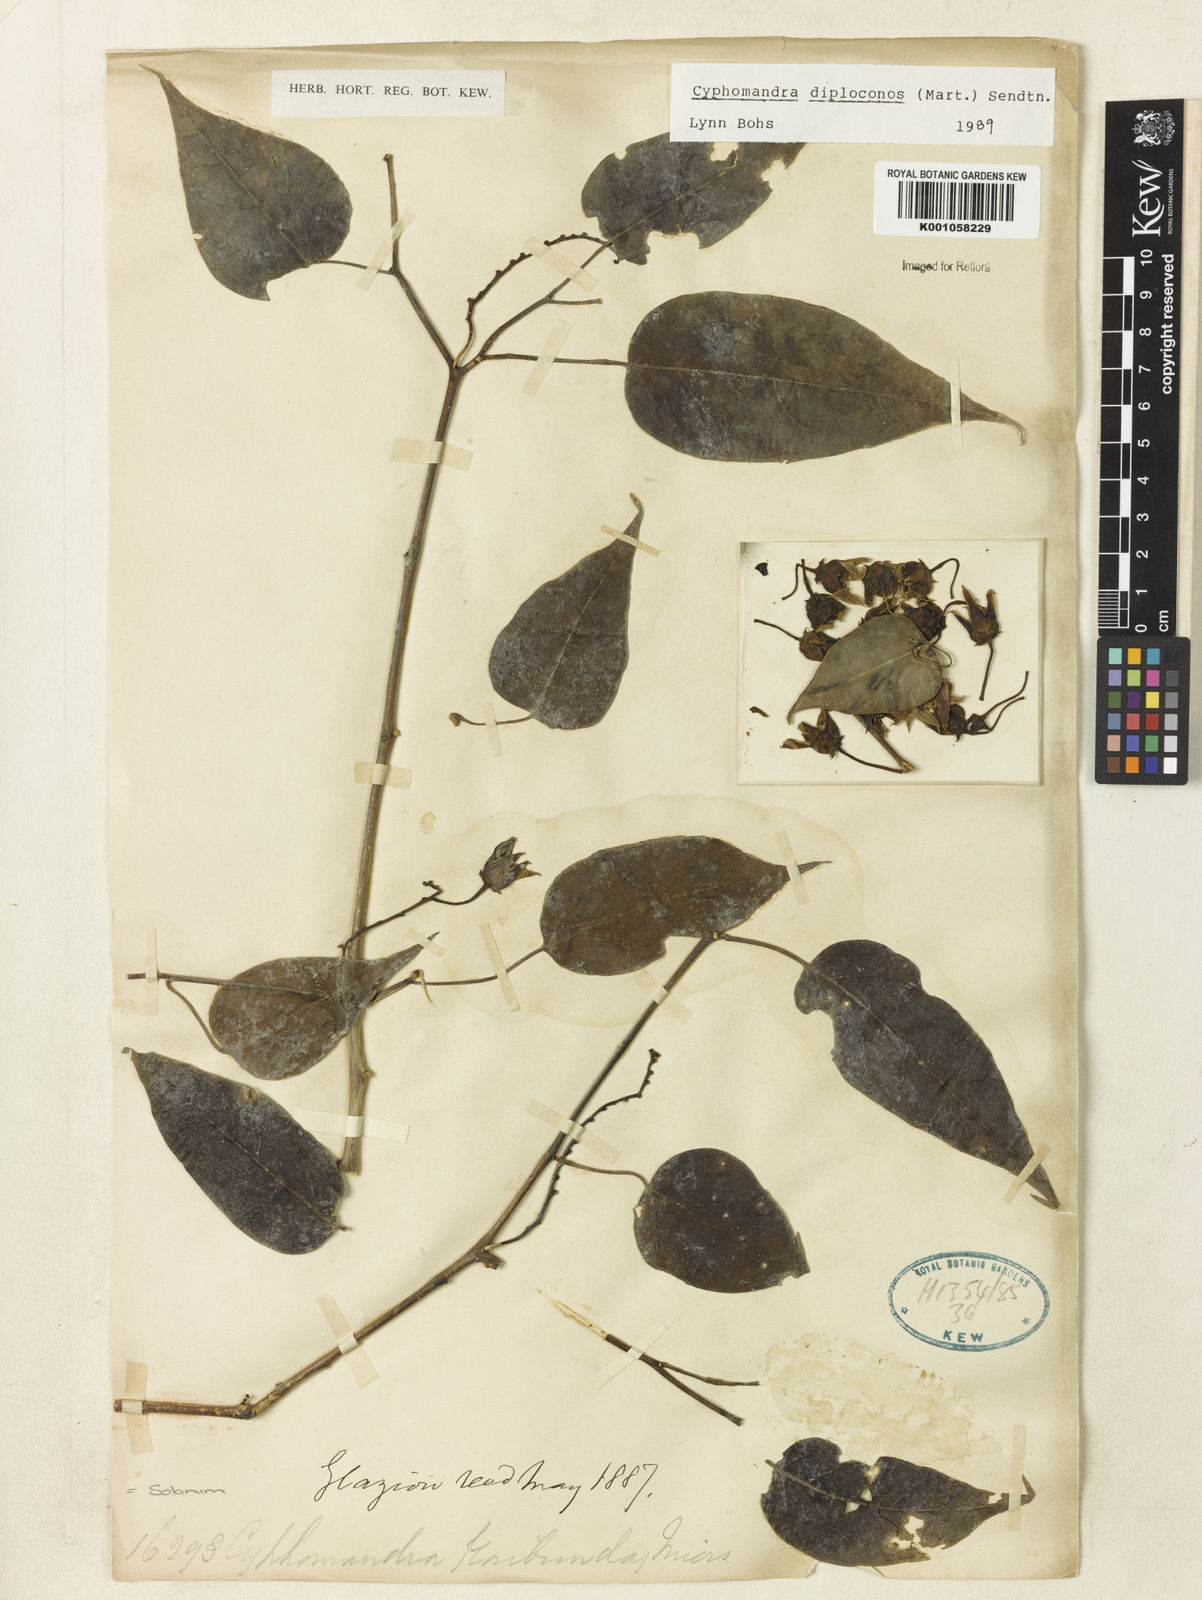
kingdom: Plantae
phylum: Tracheophyta
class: Magnoliopsida
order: Solanales
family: Solanaceae
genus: Solanum
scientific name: Solanum diploconos
